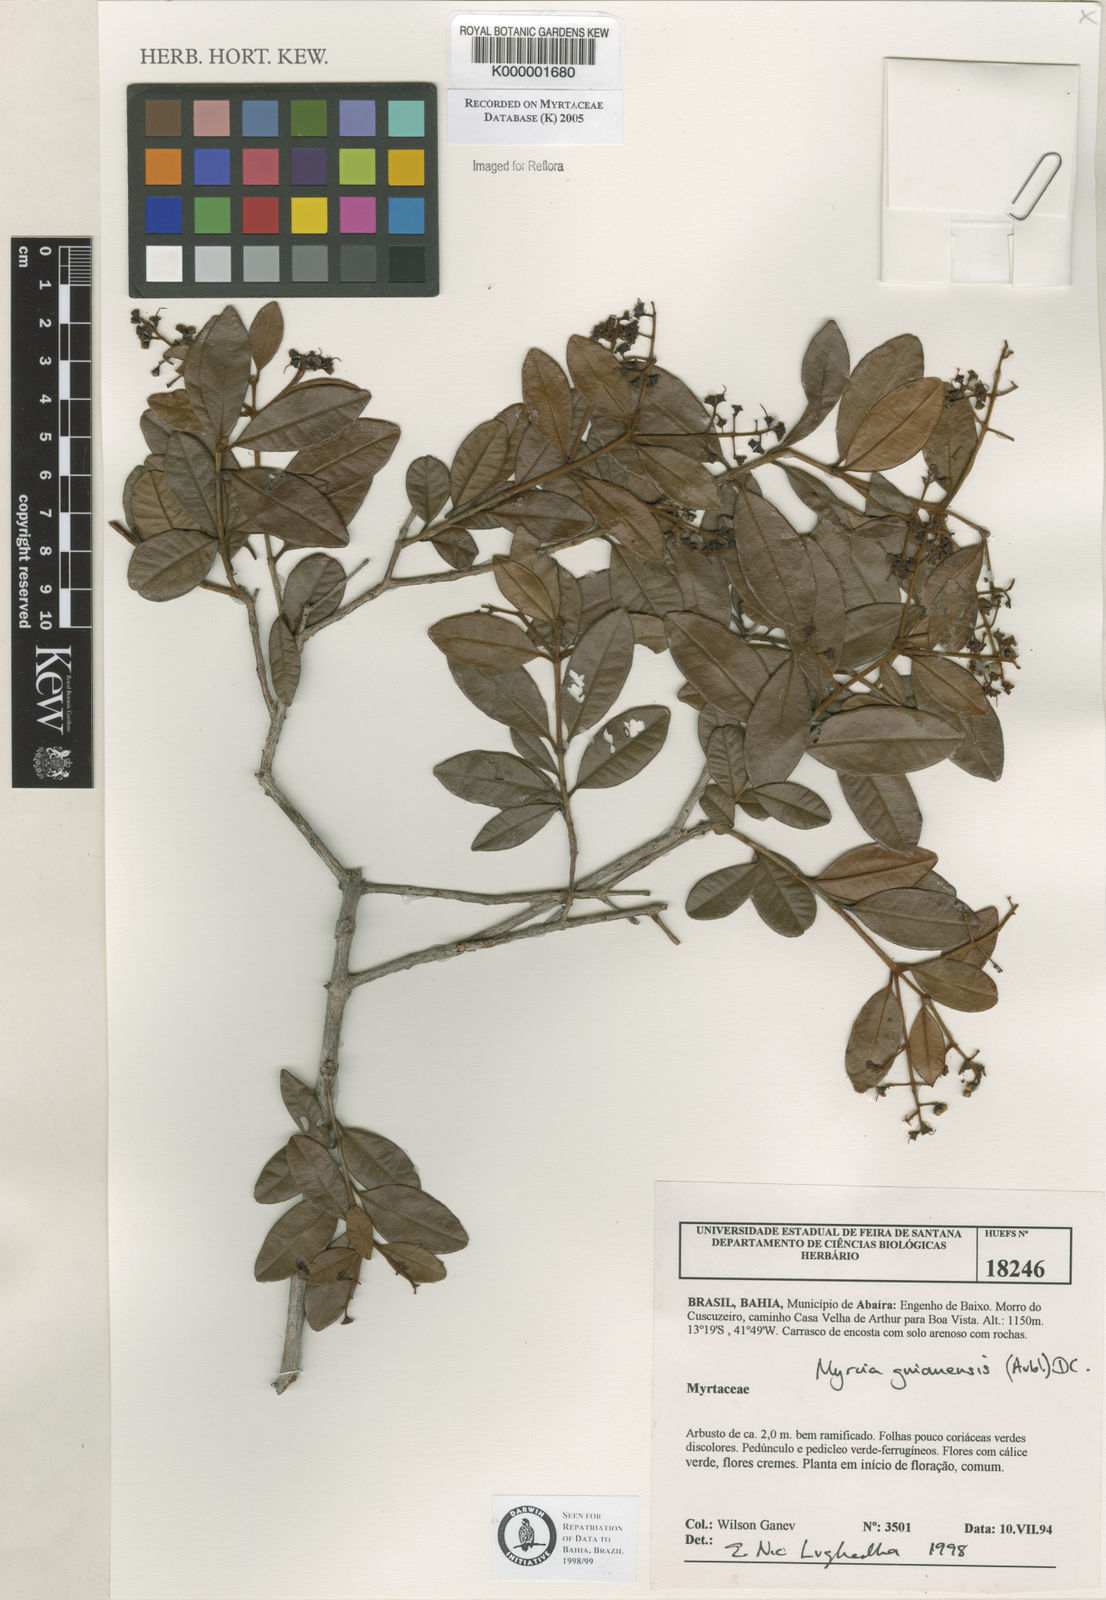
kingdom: Plantae
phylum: Tracheophyta
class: Magnoliopsida
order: Myrtales
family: Myrtaceae
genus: Myrcia
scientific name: Myrcia guianensis
